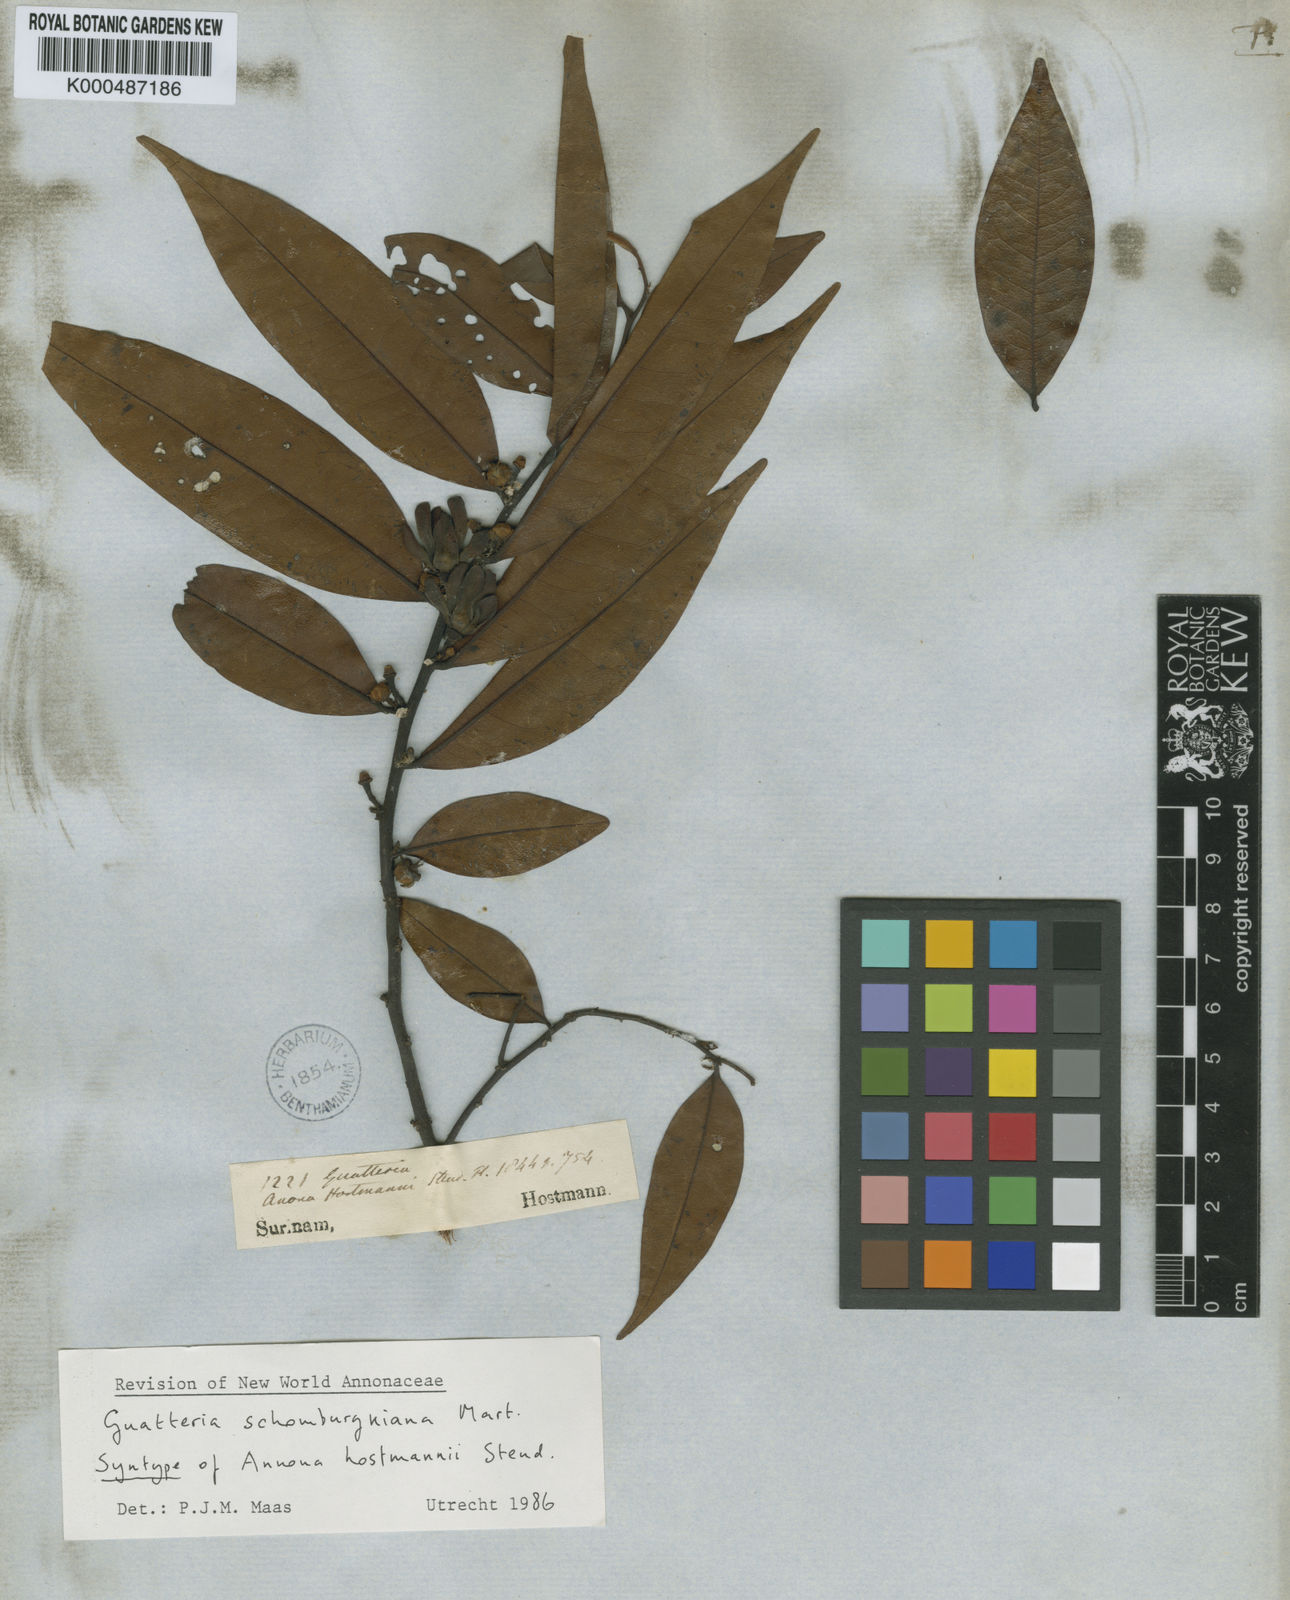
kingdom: Plantae
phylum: Tracheophyta
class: Magnoliopsida
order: Magnoliales
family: Annonaceae
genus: Guatteria
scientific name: Guatteria schomburgkiana
